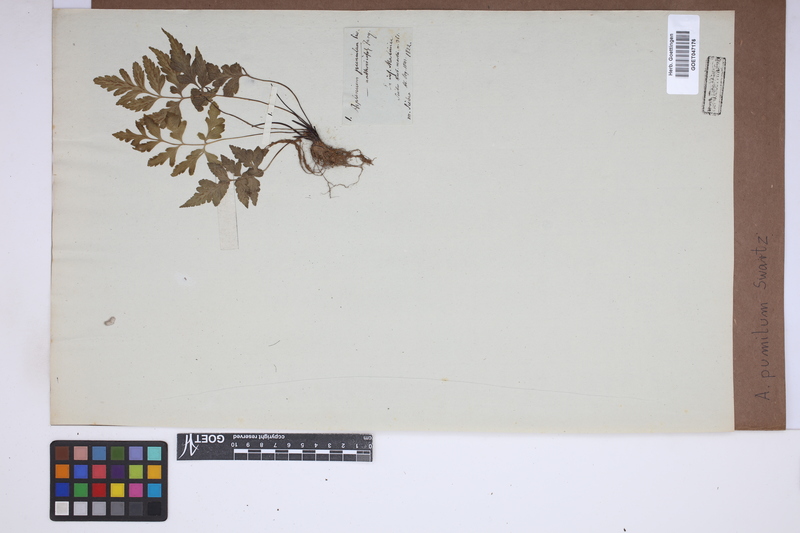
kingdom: Plantae
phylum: Tracheophyta
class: Polypodiopsida
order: Polypodiales
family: Aspleniaceae
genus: Asplenium
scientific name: Asplenium pumilum
